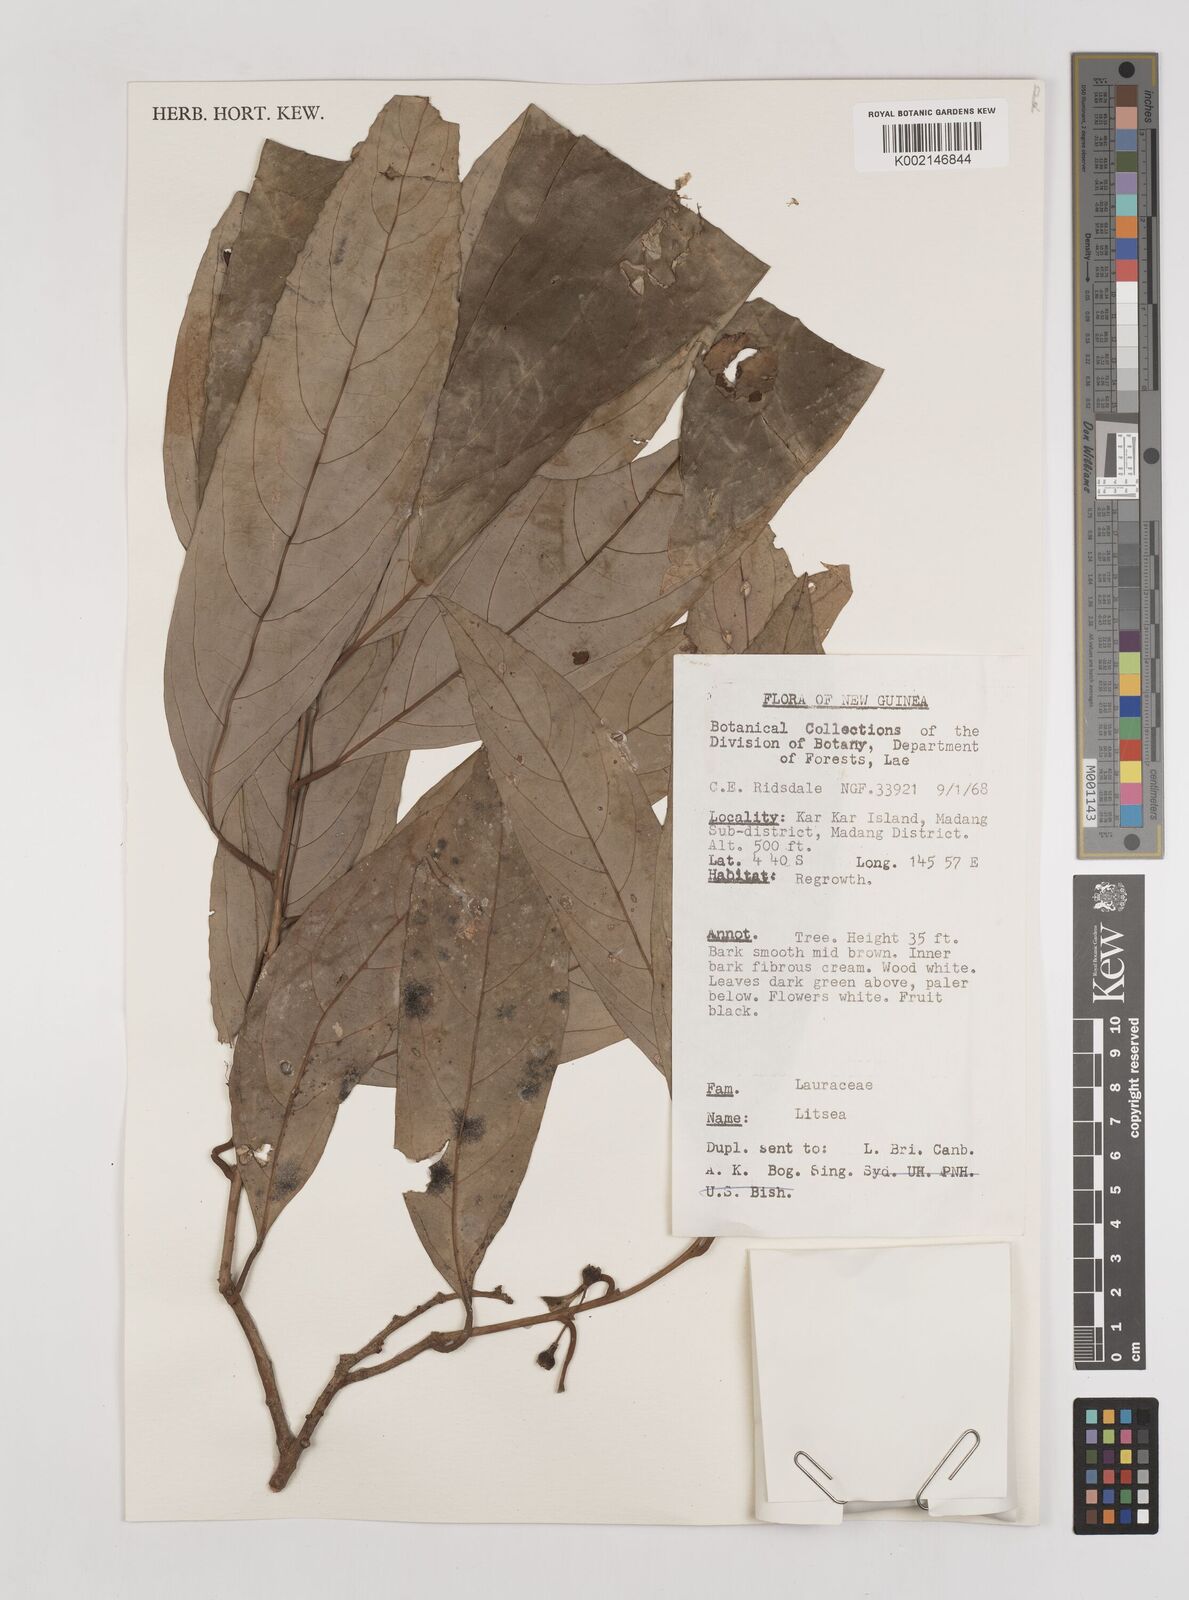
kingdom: Plantae
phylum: Tracheophyta
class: Magnoliopsida
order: Laurales
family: Lauraceae
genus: Litsea
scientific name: Litsea
